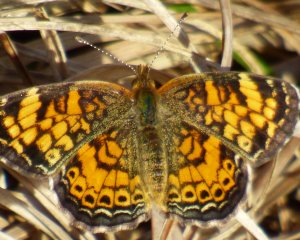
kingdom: Animalia
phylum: Arthropoda
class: Insecta
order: Lepidoptera
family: Nymphalidae
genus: Phyciodes
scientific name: Phyciodes tharos
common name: Pearl Crescent
